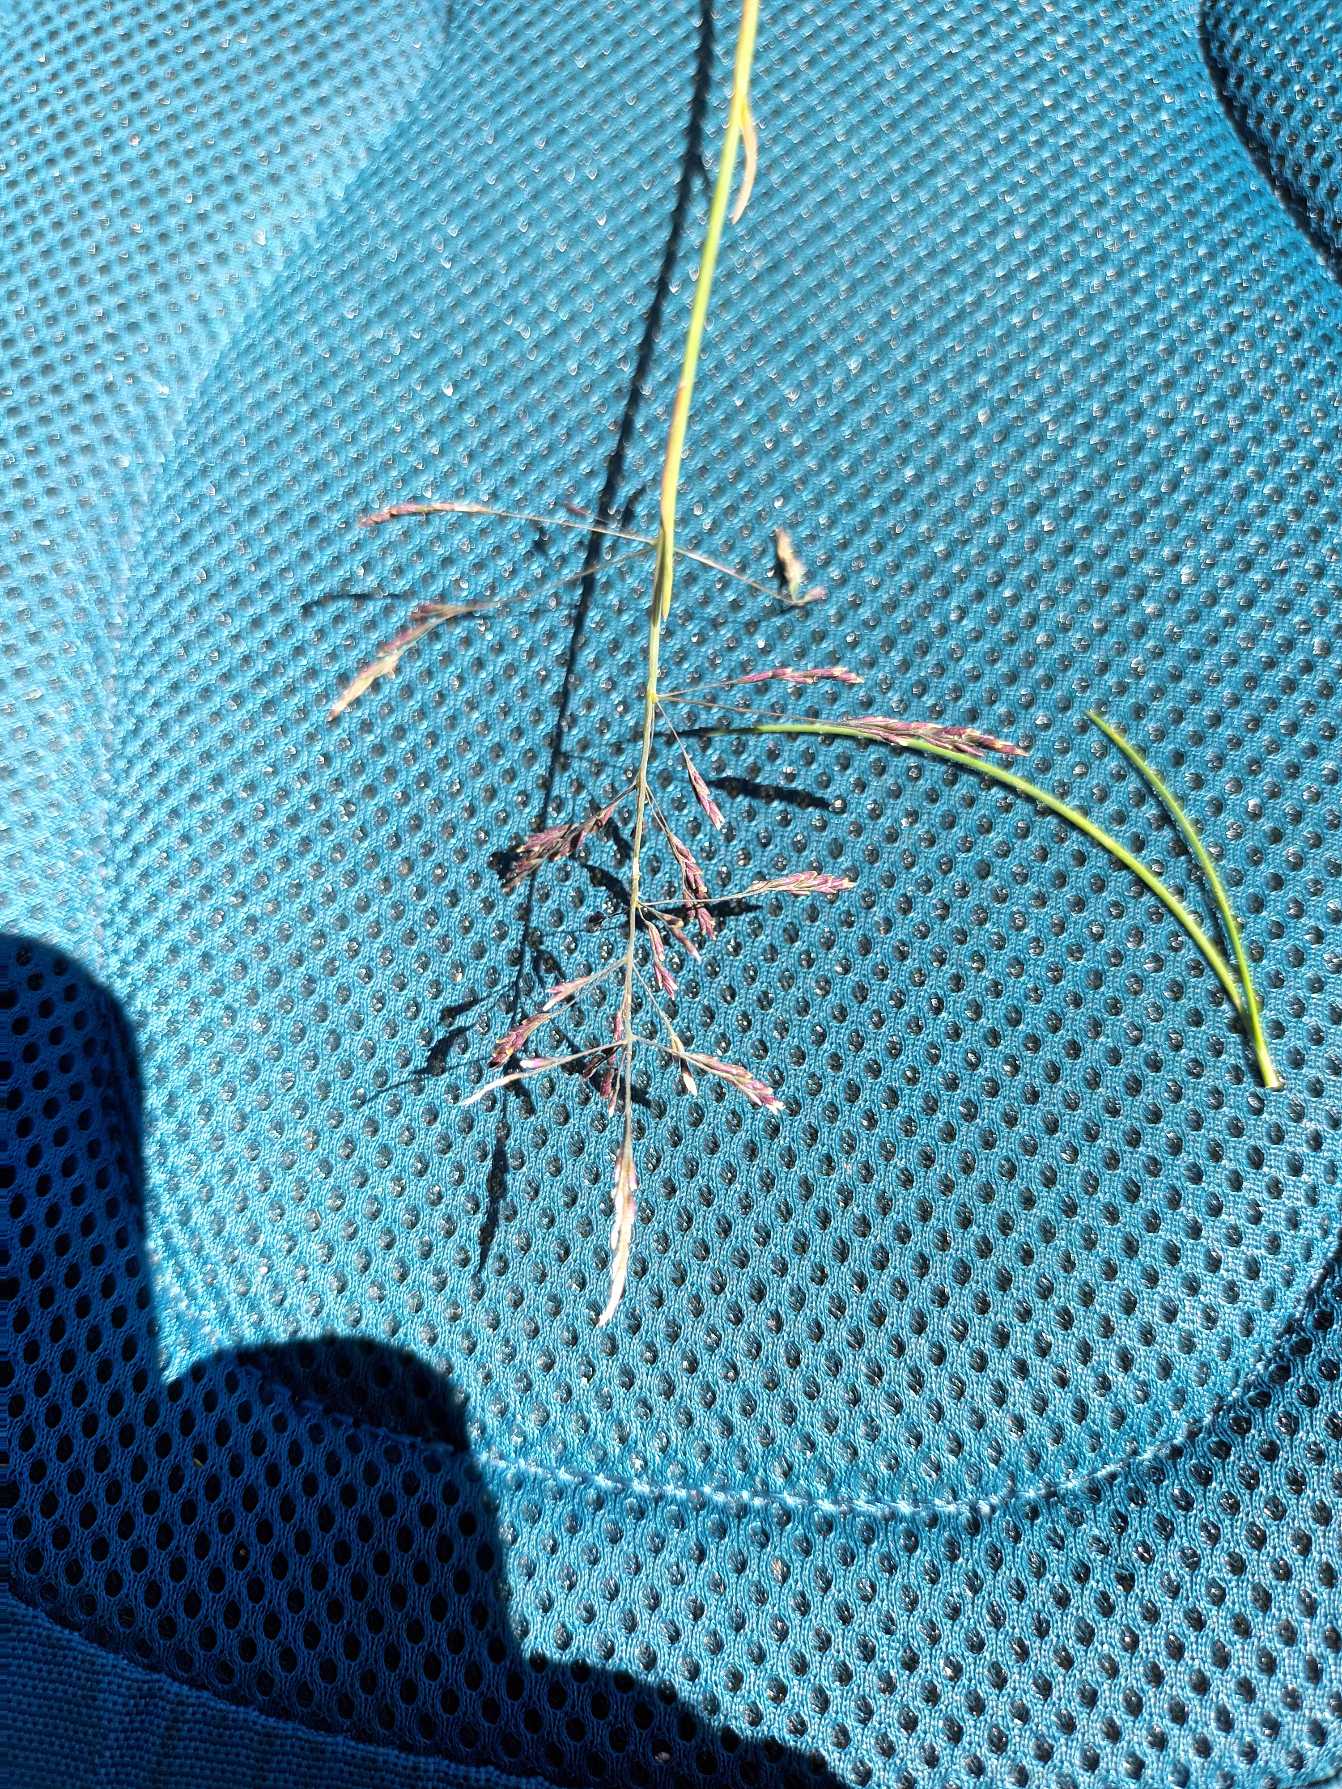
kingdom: Plantae
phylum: Tracheophyta
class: Liliopsida
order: Poales
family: Poaceae
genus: Puccinellia
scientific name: Puccinellia distans
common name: Udspærret annelgræs
